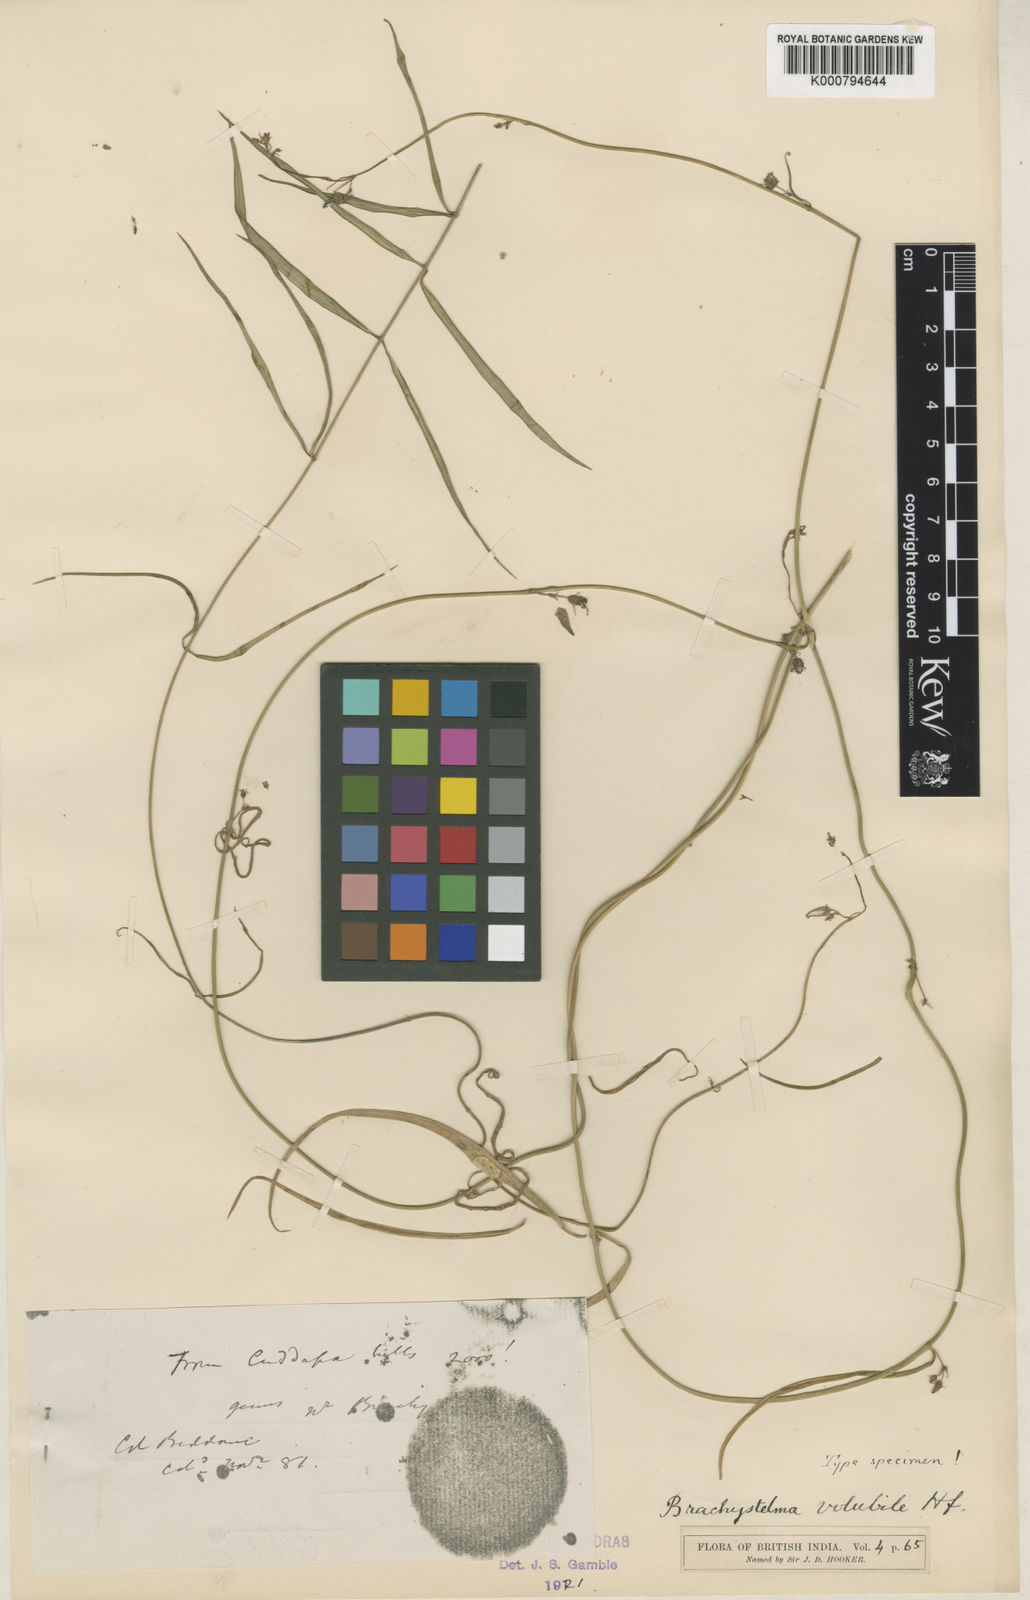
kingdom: Plantae
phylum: Tracheophyta
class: Magnoliopsida
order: Gentianales
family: Apocynaceae
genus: Ceropegia
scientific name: Ceropegia volubicaulis
